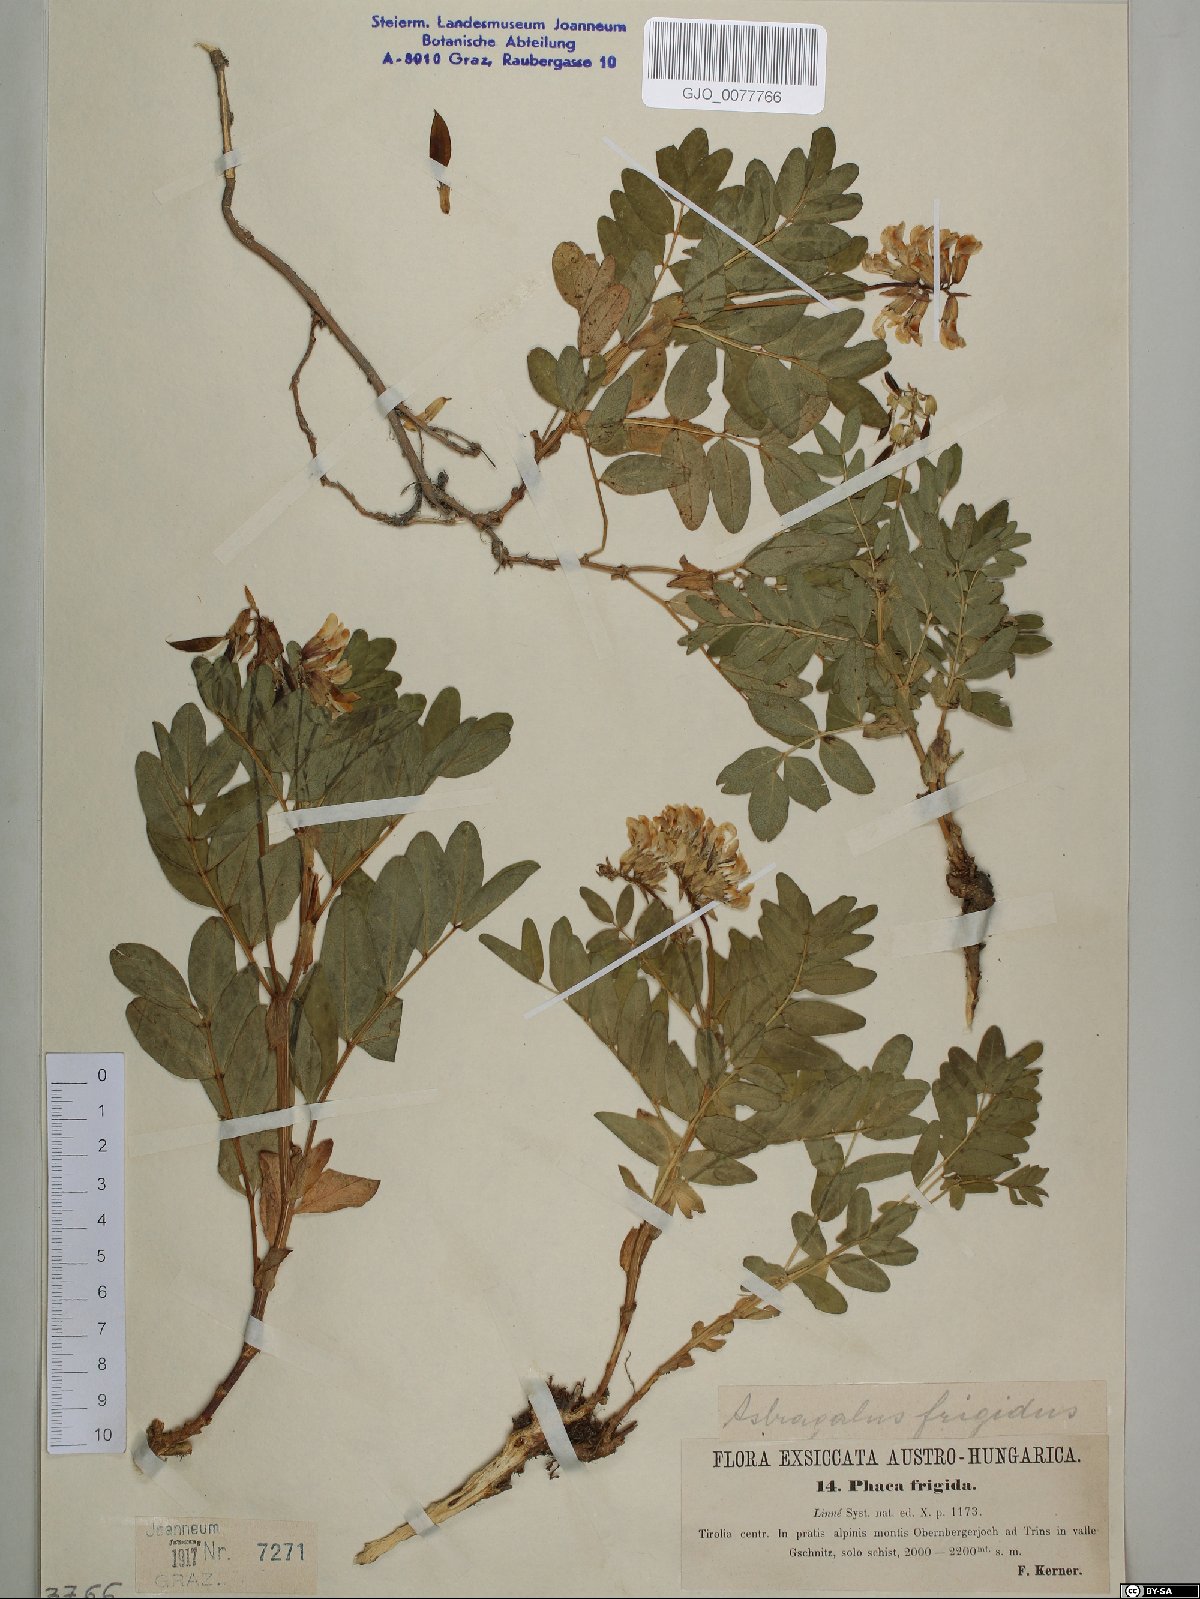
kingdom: Plantae
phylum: Tracheophyta
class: Magnoliopsida
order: Fabales
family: Fabaceae
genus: Astragalus
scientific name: Astragalus frigidus
